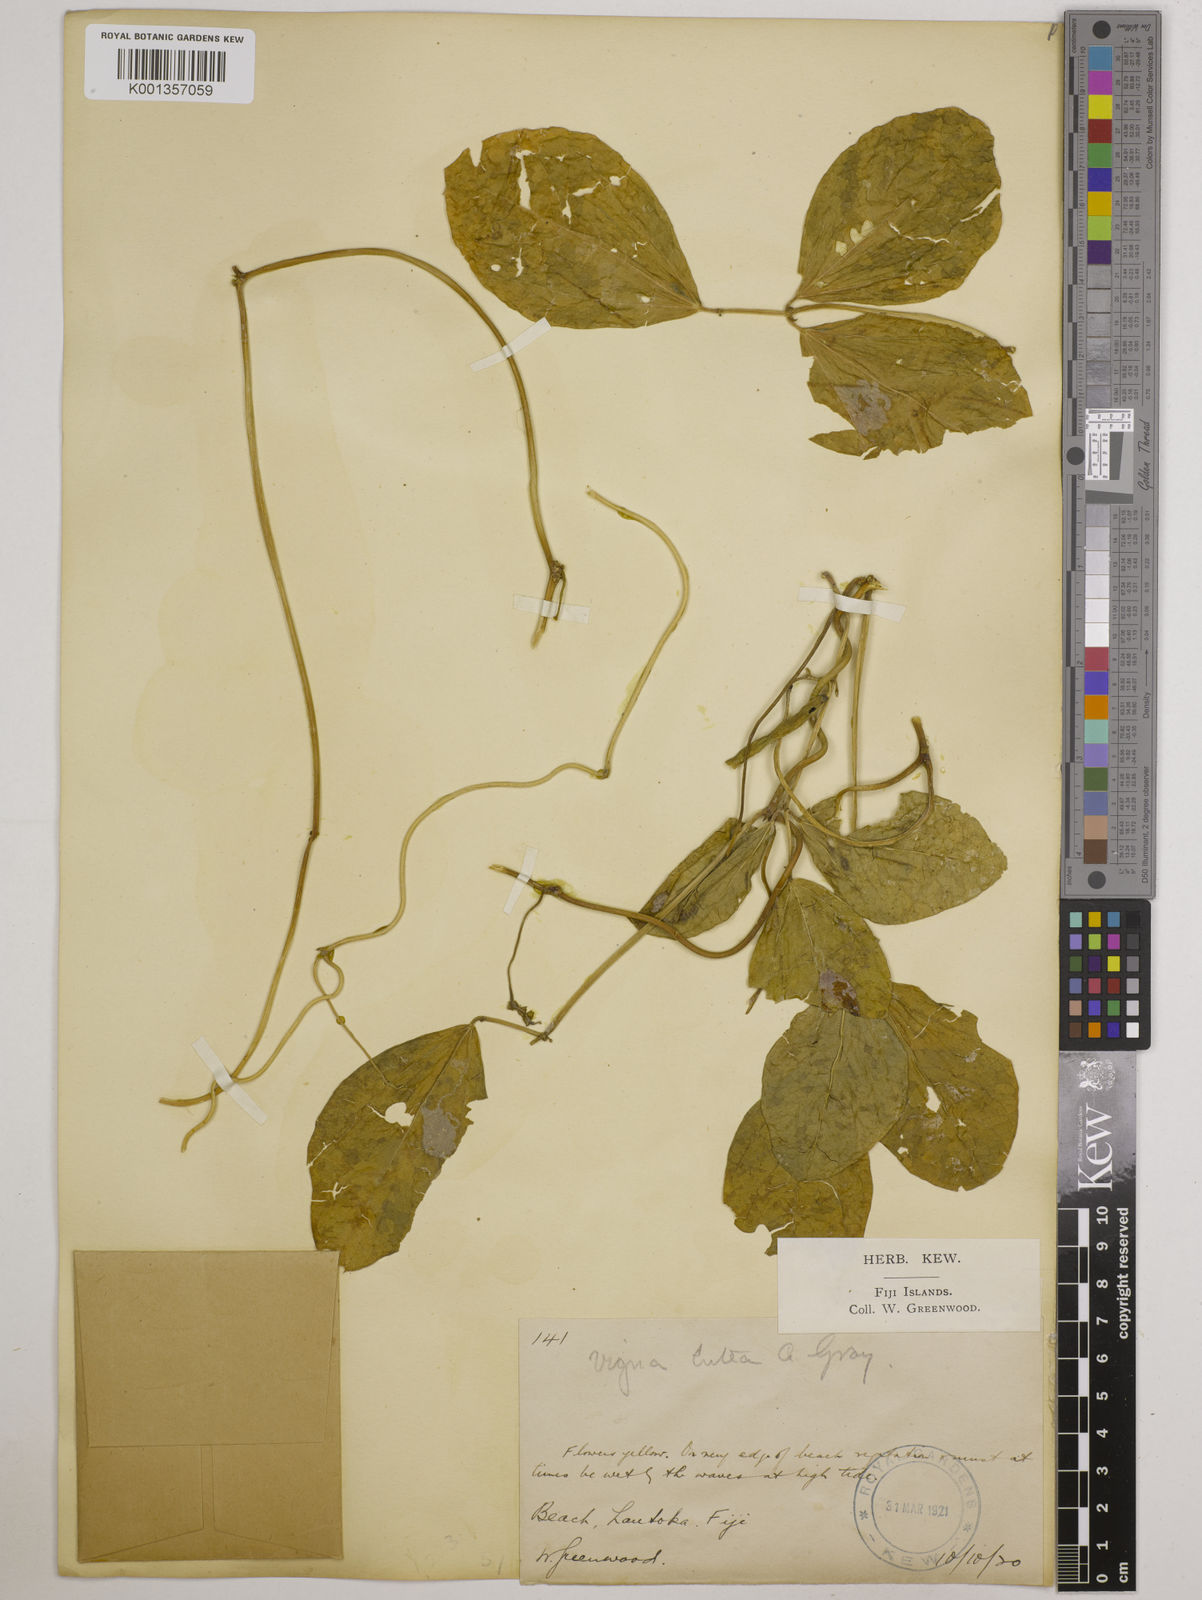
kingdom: Plantae
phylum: Tracheophyta
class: Magnoliopsida
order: Fabales
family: Fabaceae
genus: Vigna
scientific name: Vigna marina
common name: Dune-bean
